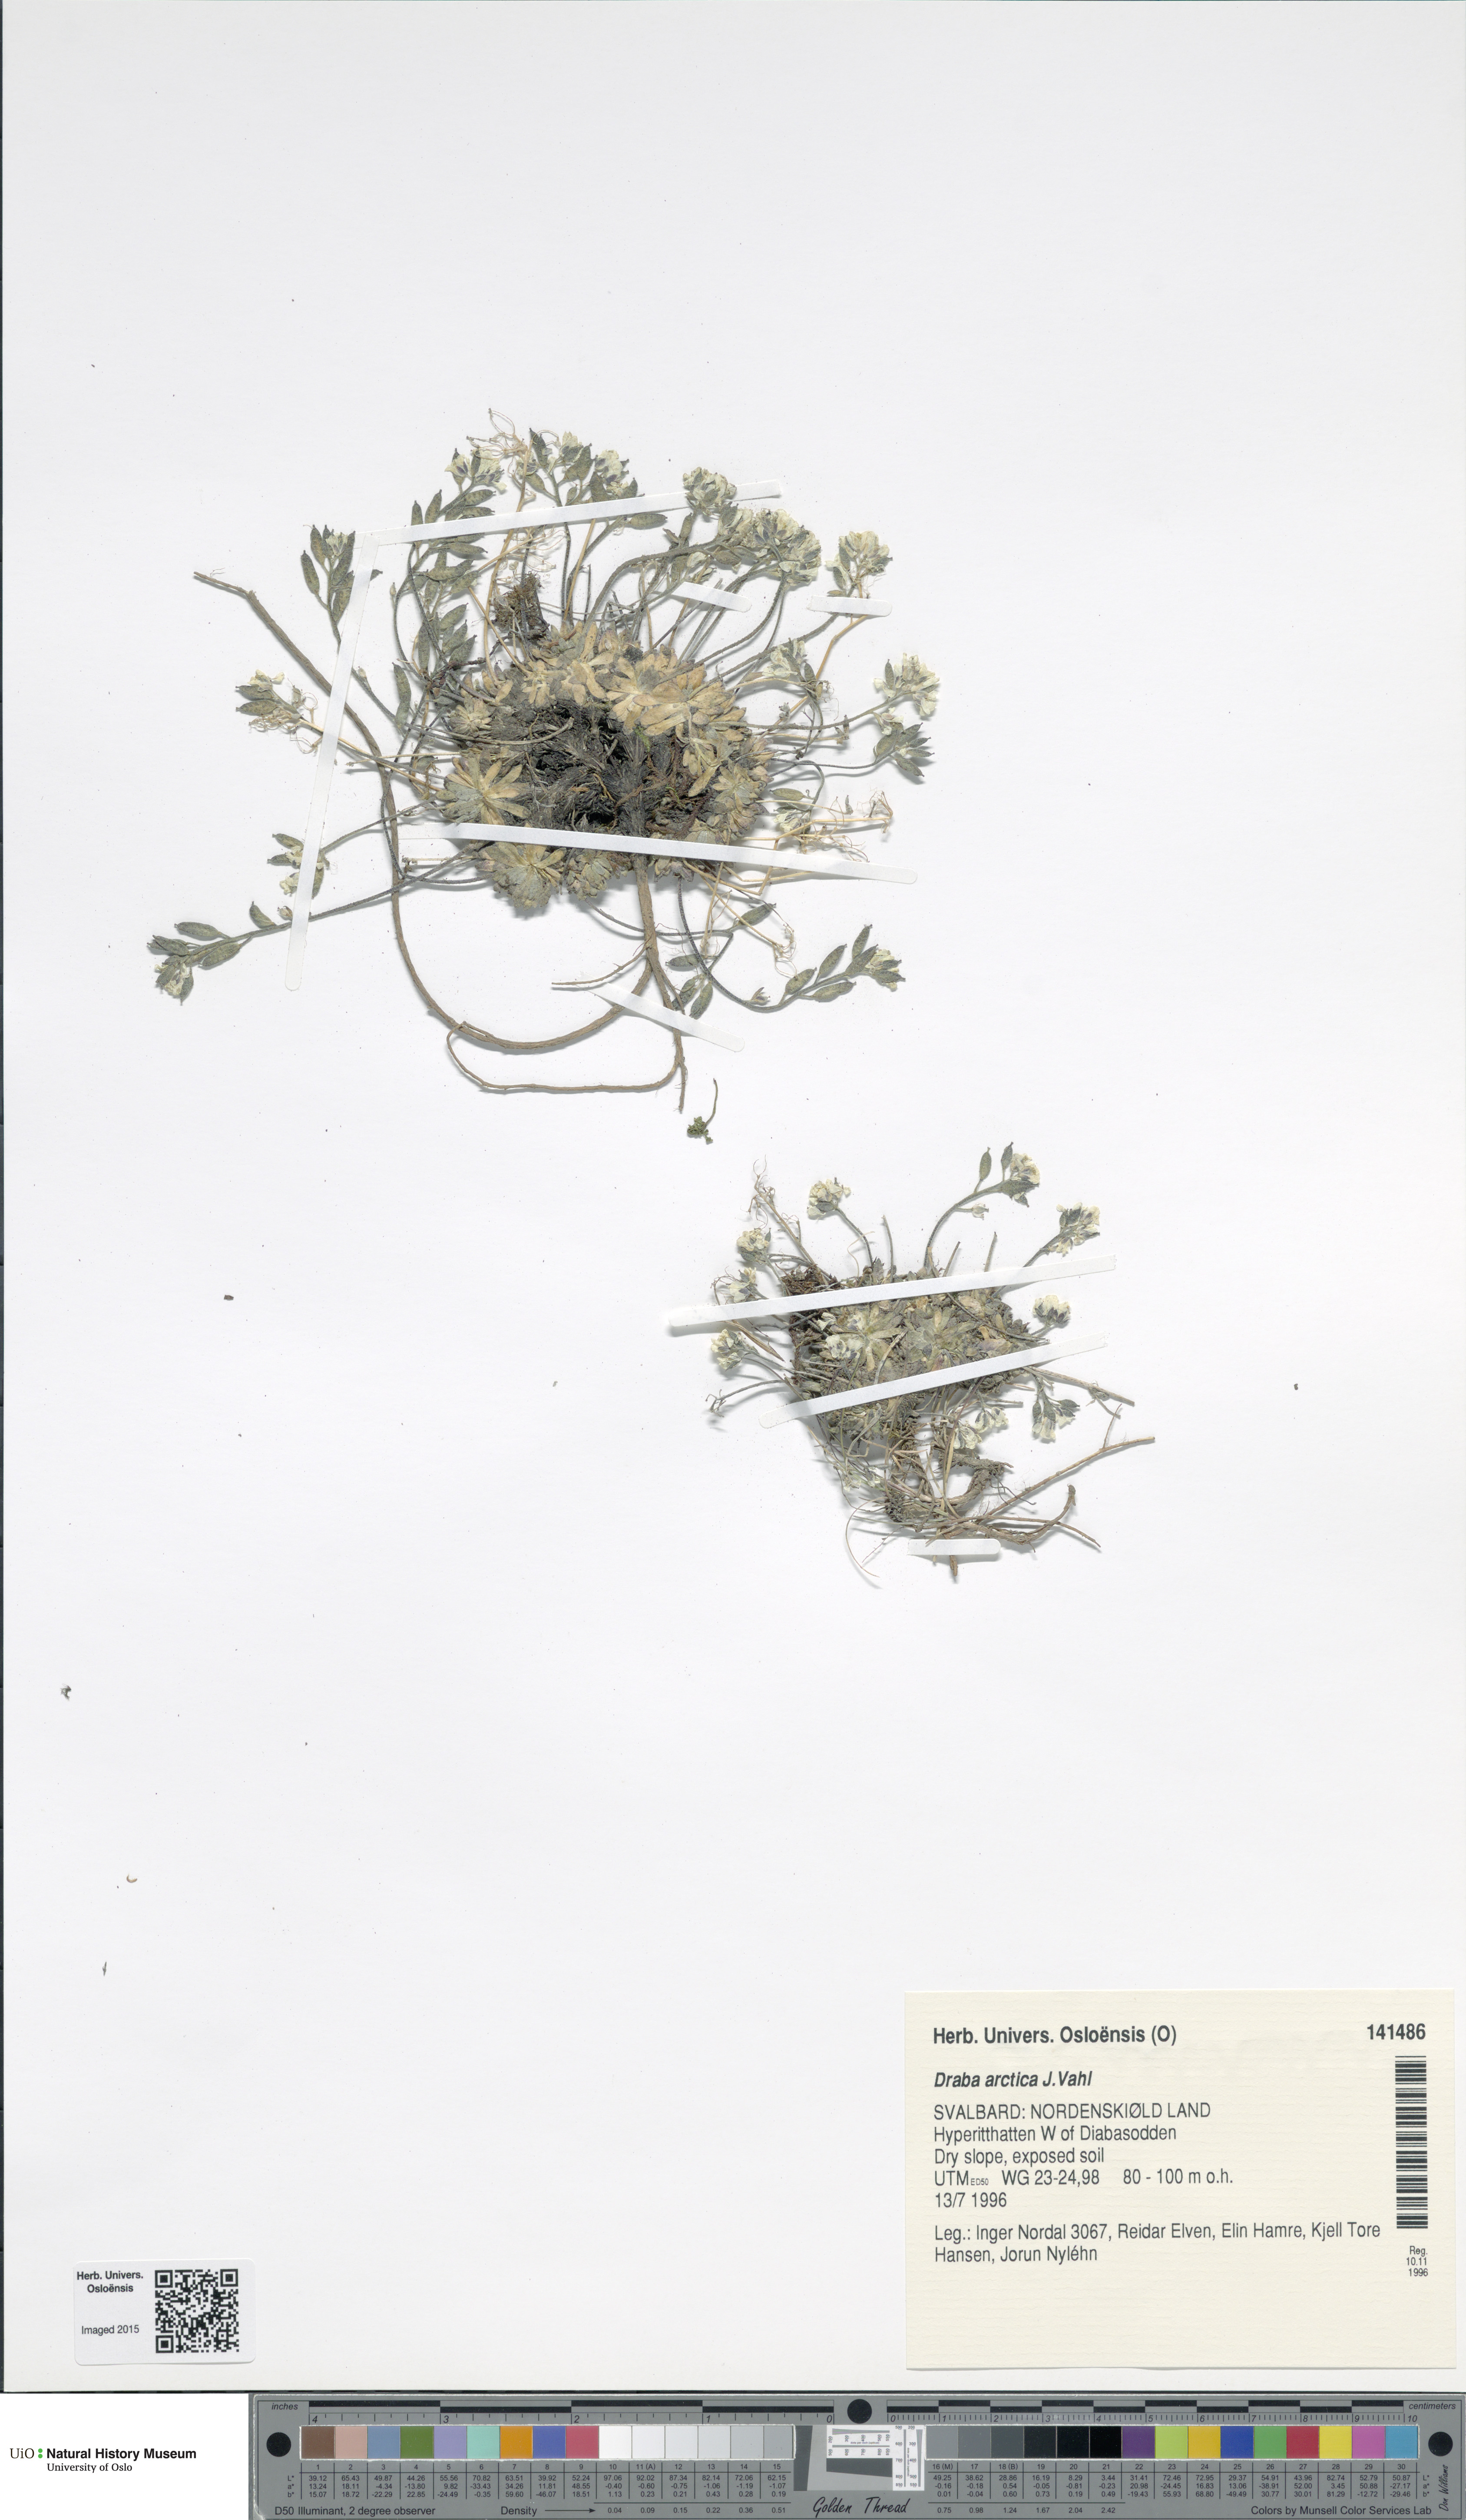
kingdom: Plantae
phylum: Tracheophyta
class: Magnoliopsida
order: Brassicales
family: Brassicaceae
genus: Draba
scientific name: Draba arctica
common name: Arctic draba
